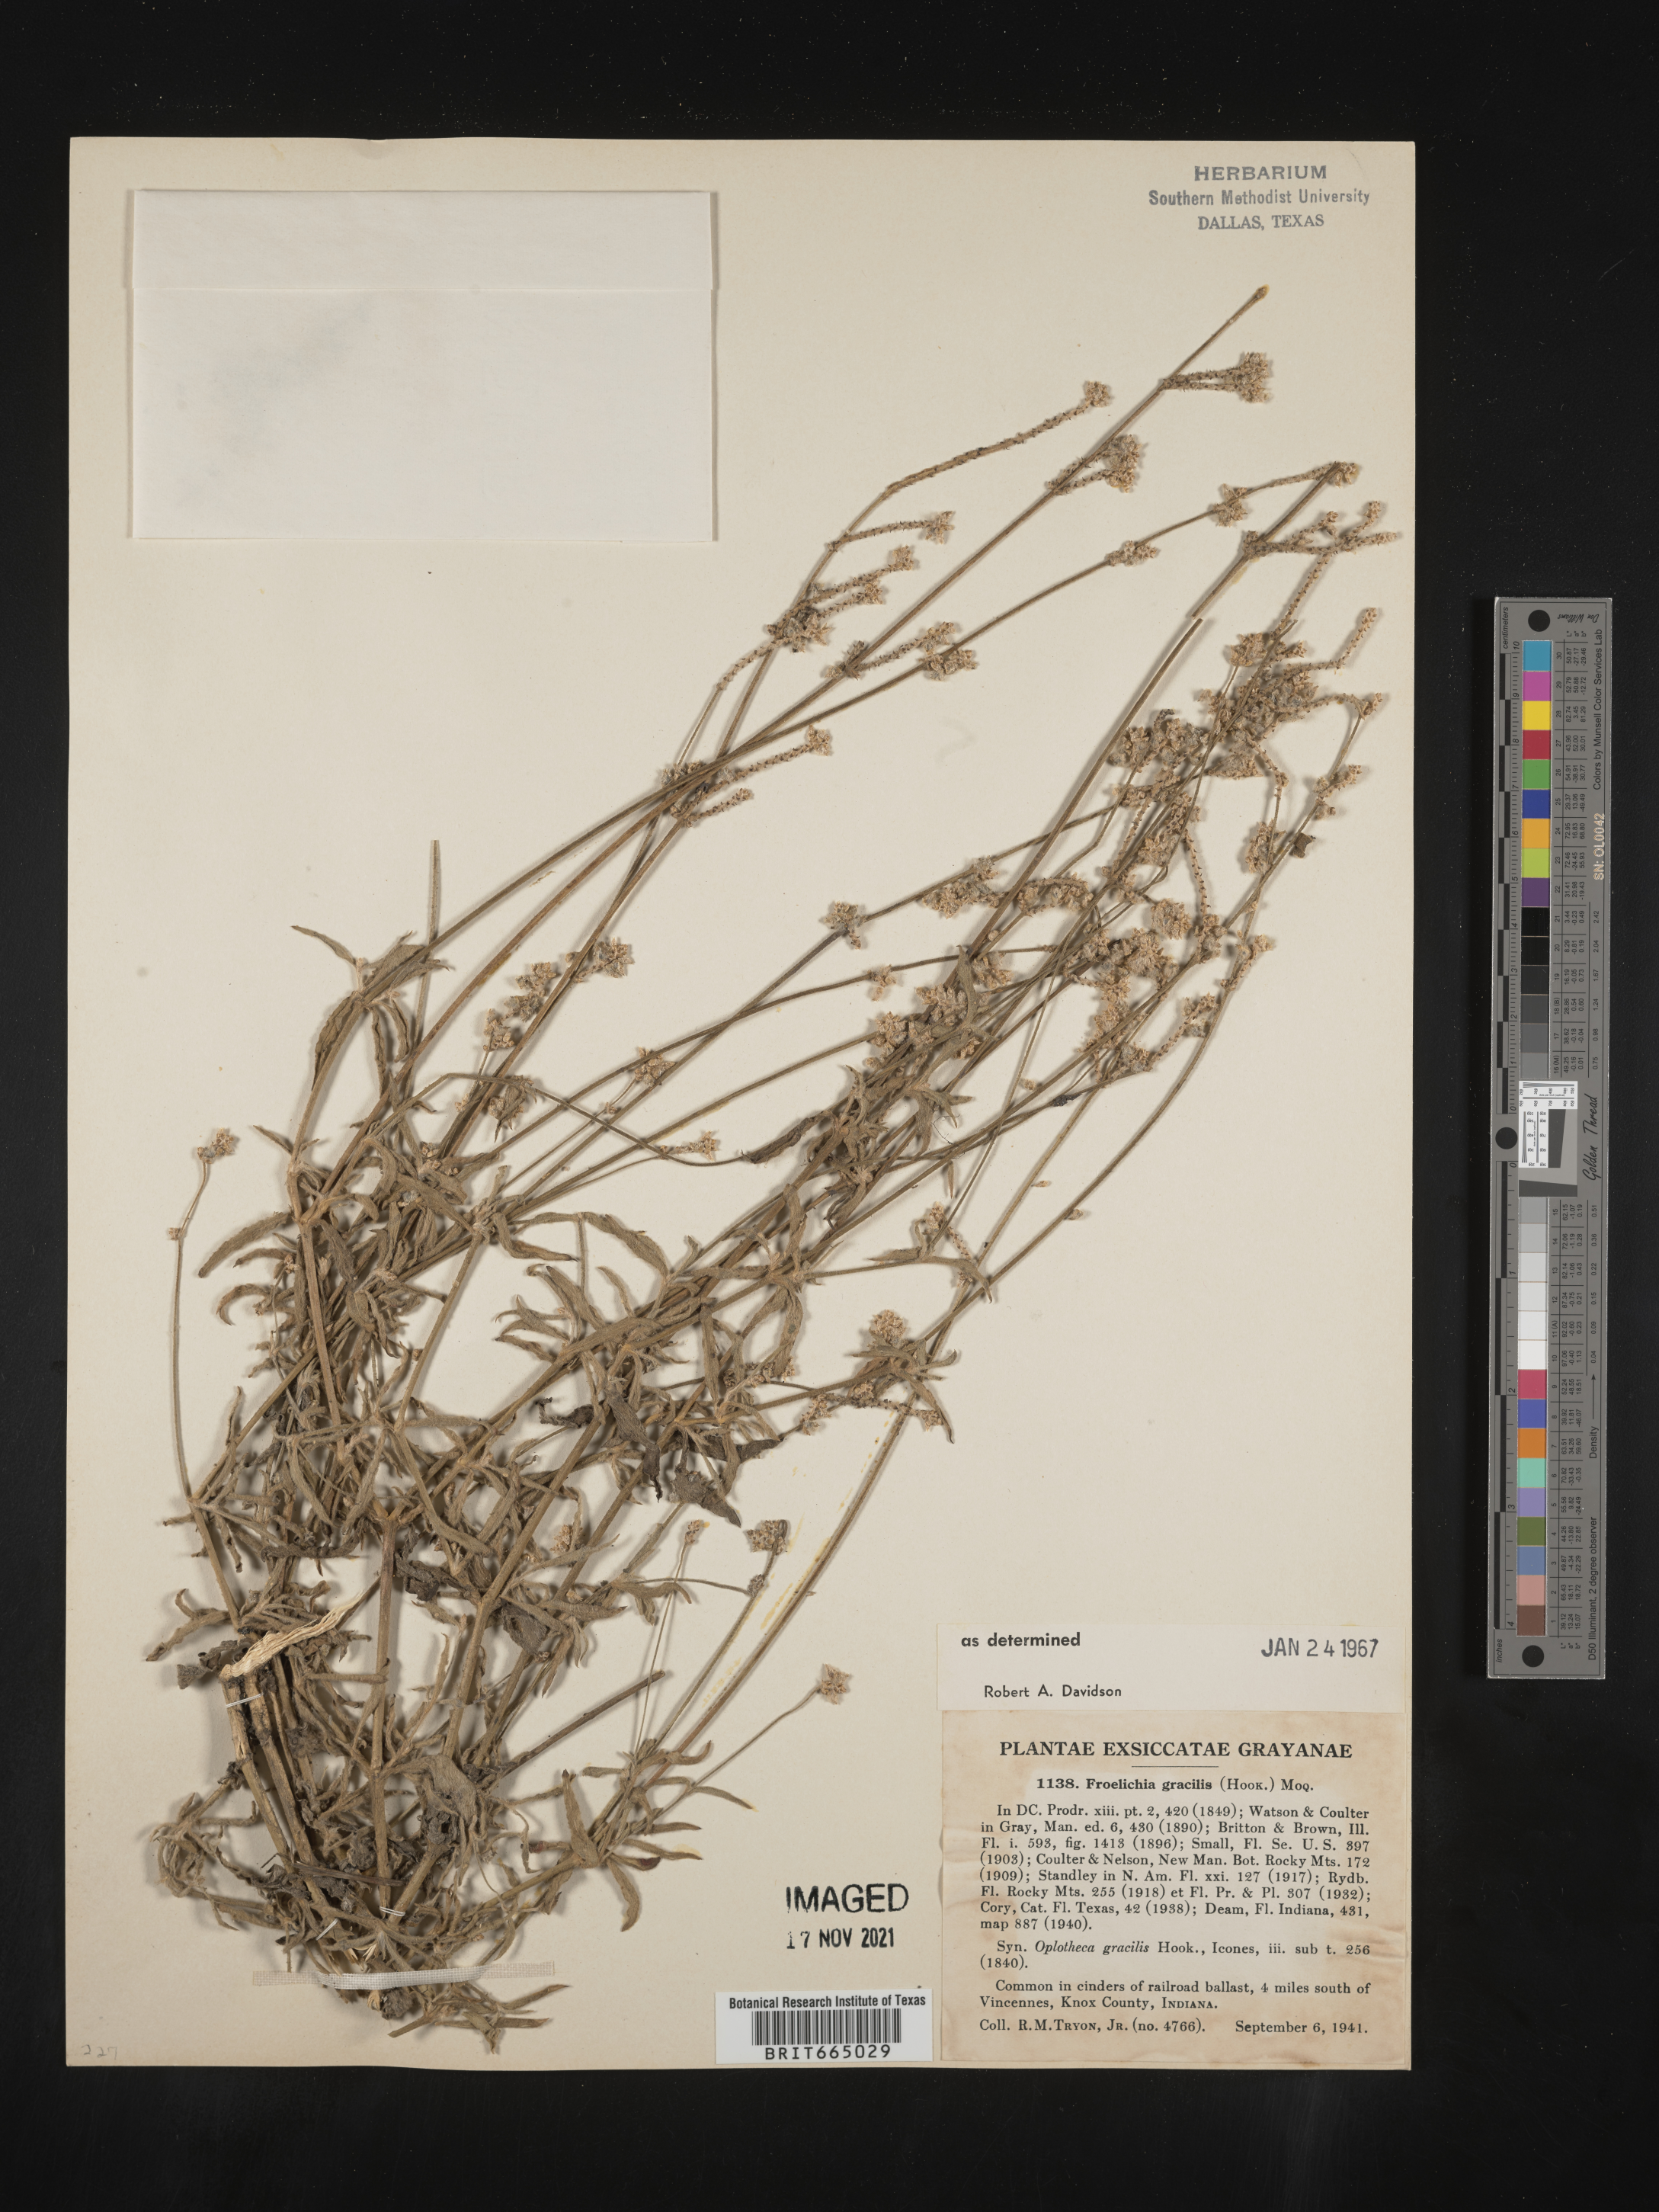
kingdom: Plantae
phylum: Tracheophyta
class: Magnoliopsida
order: Caryophyllales
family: Amaranthaceae
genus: Froelichia
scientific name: Froelichia gracilis
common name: Slender cottonweed
